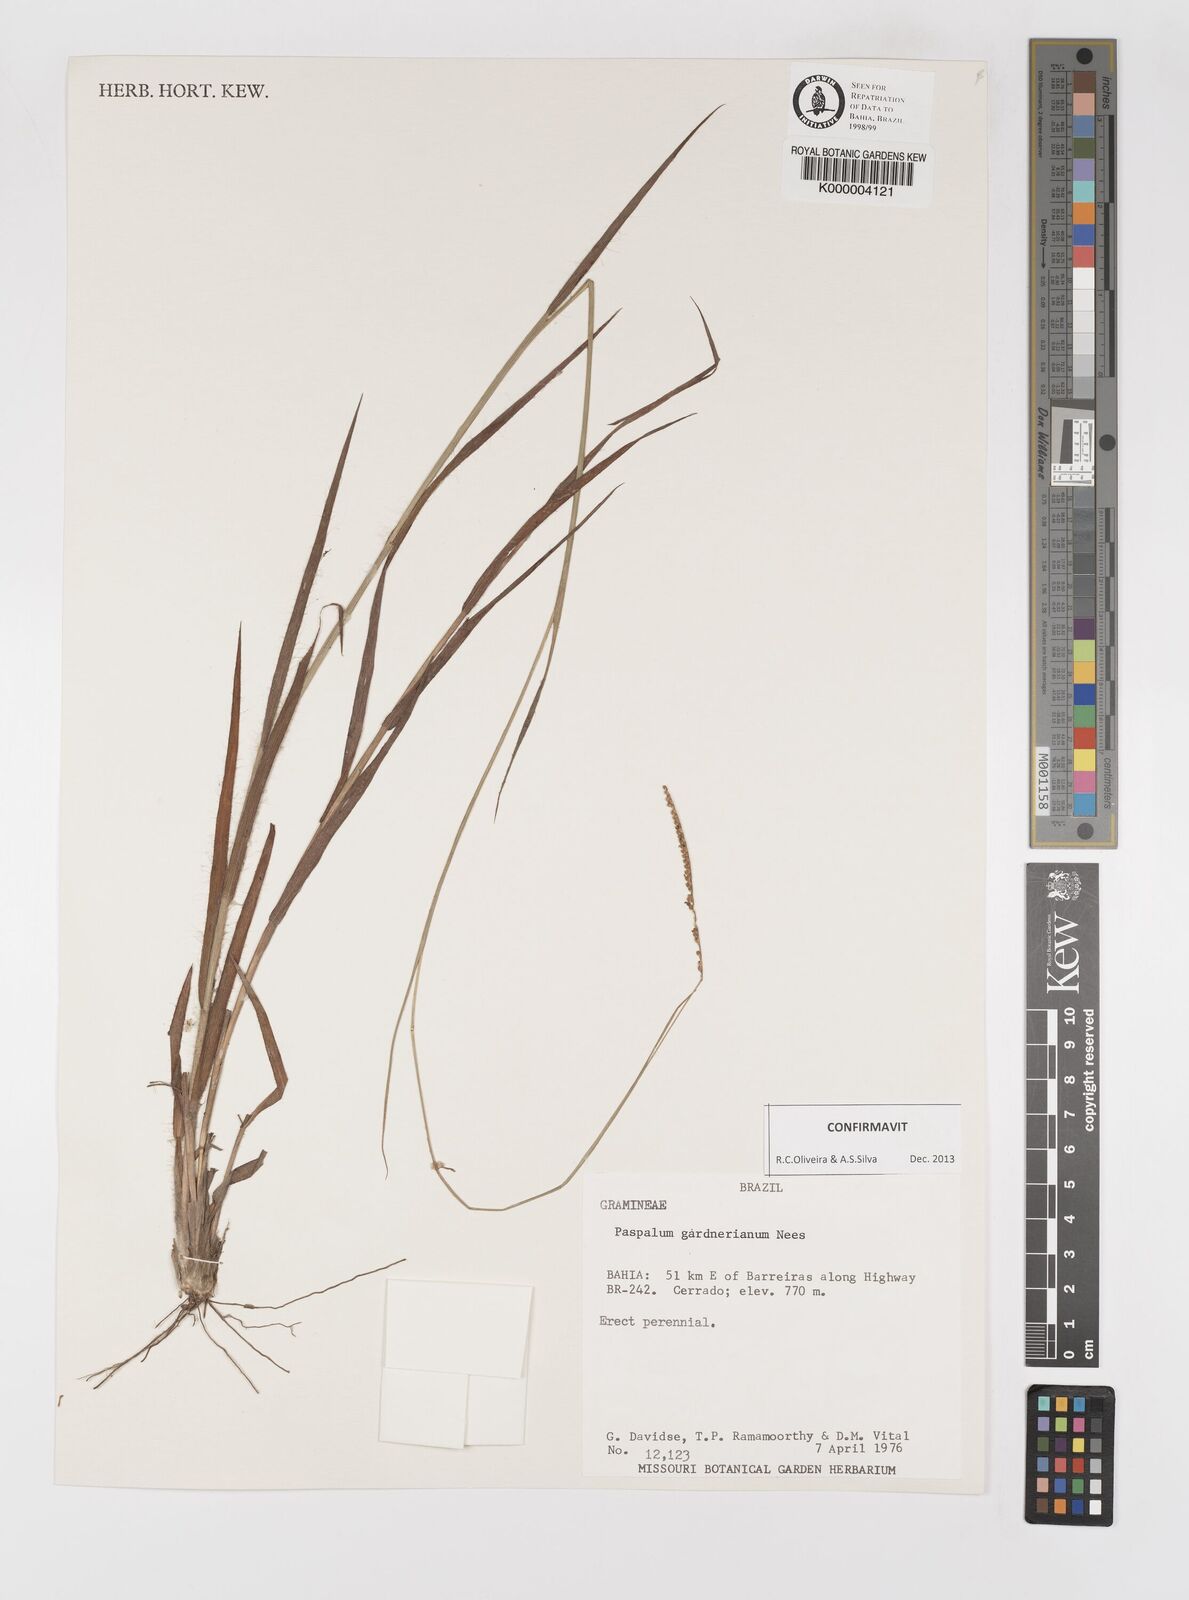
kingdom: Plantae
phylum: Tracheophyta
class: Liliopsida
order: Poales
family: Poaceae
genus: Paspalum
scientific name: Paspalum gardnerianum
